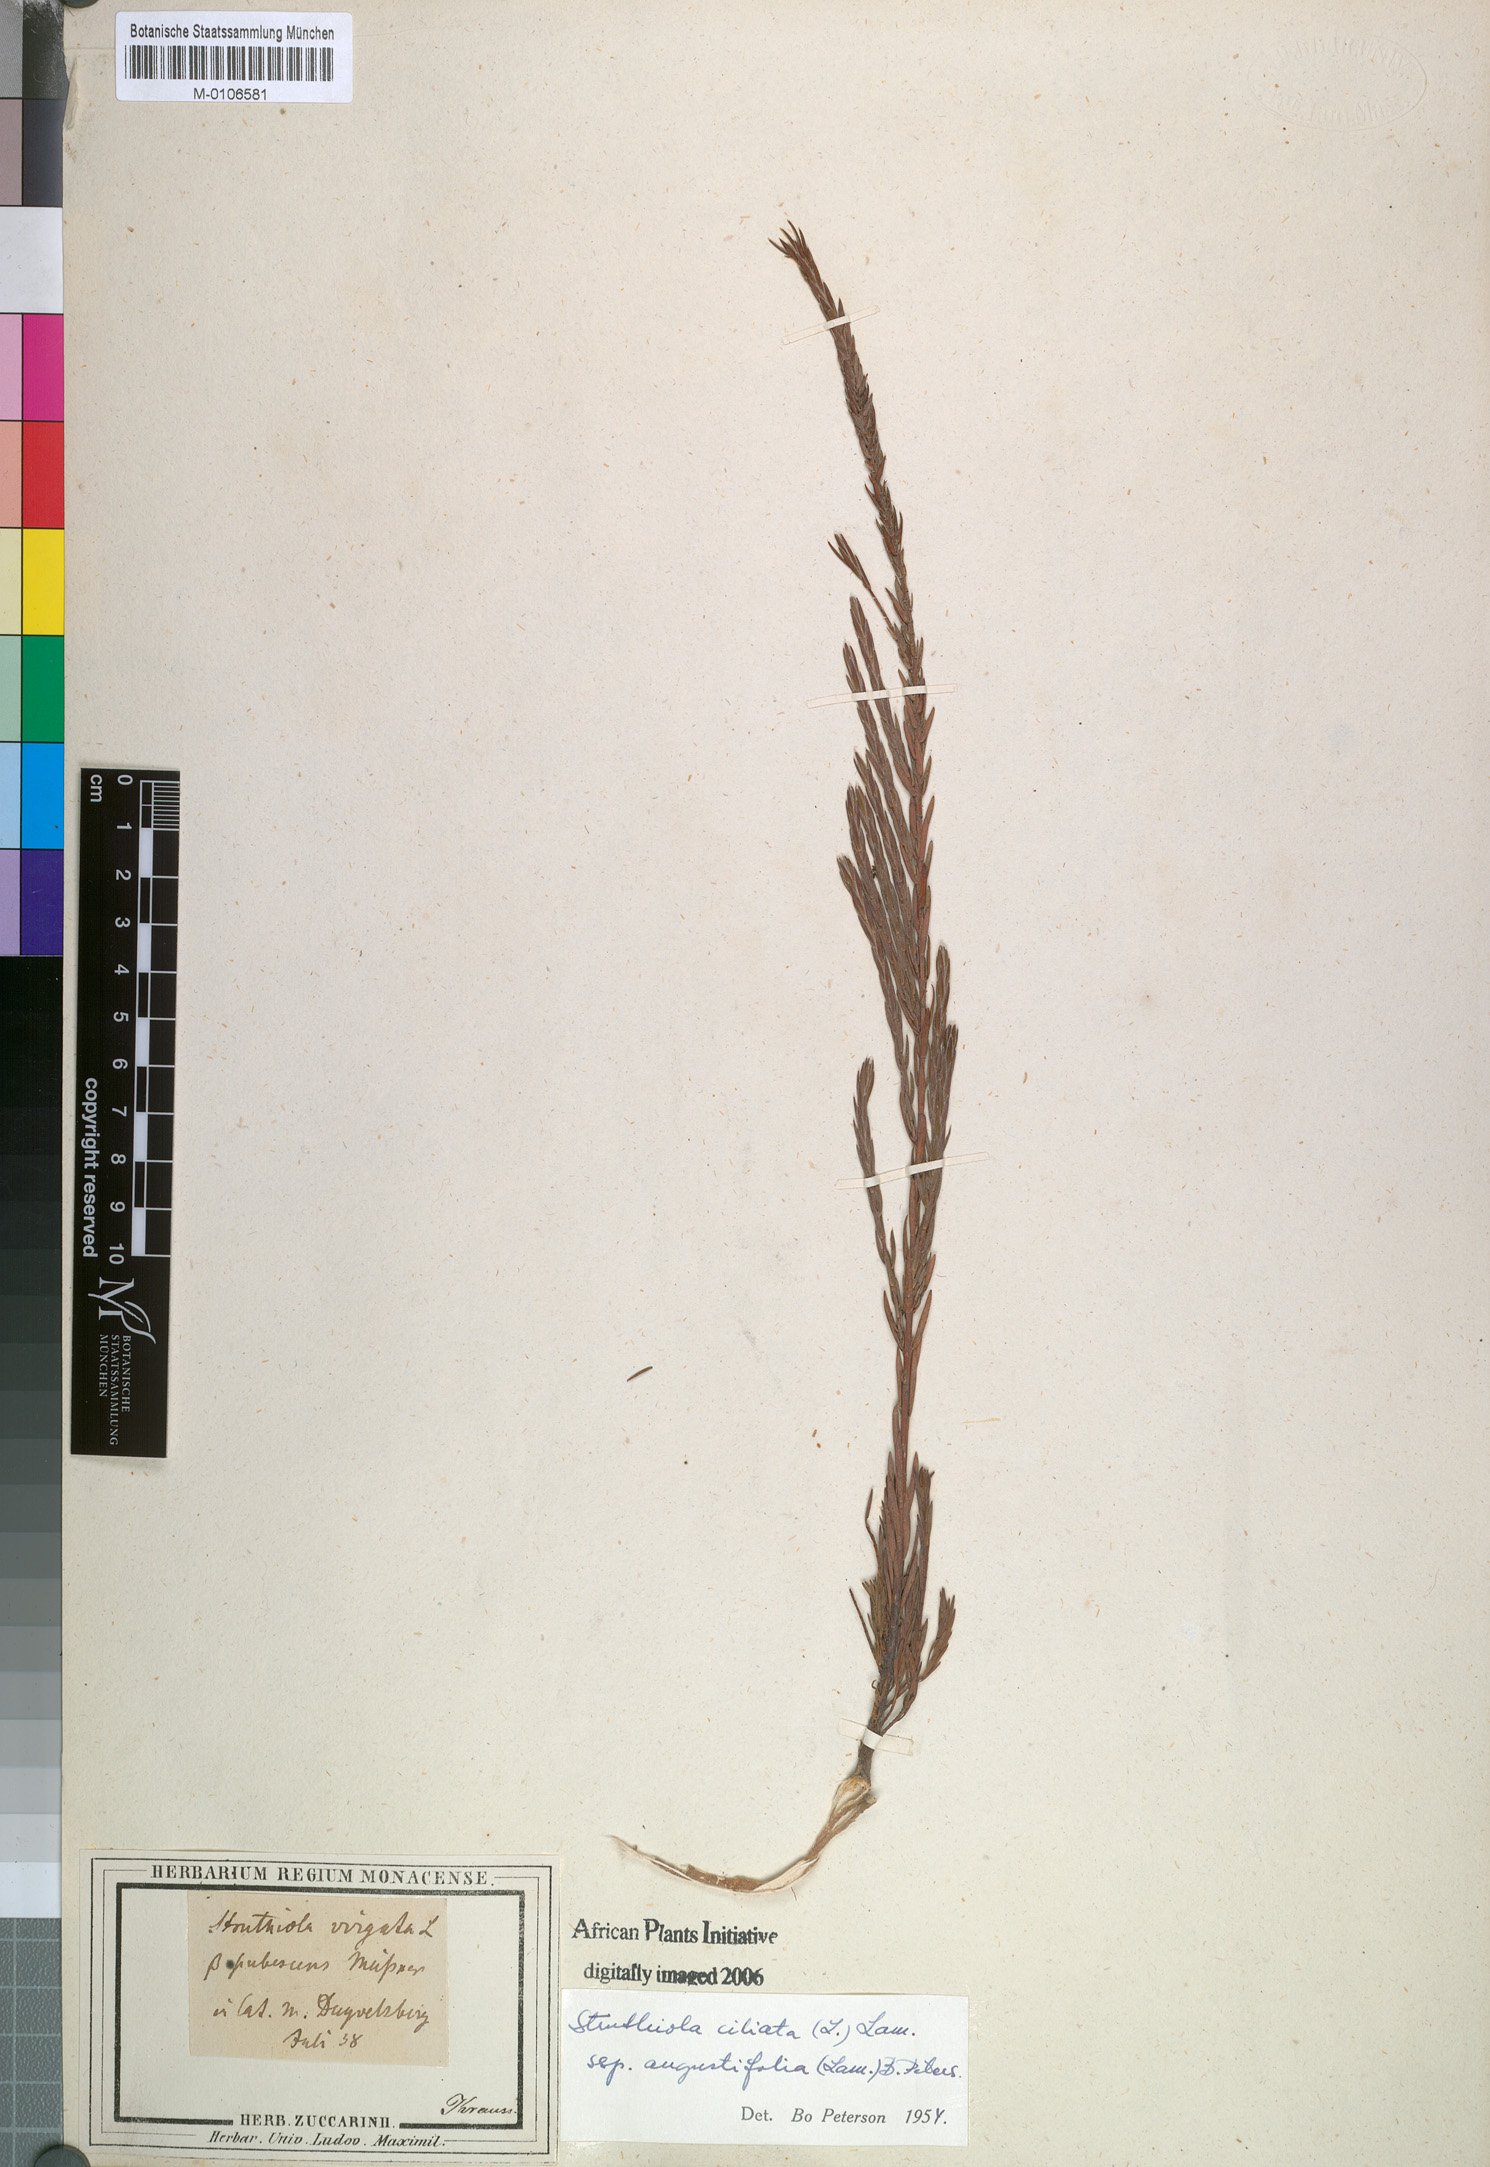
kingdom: Plantae
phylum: Tracheophyta
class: Magnoliopsida
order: Malvales
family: Thymelaeaceae
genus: Struthiola
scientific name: Struthiola ciliata
